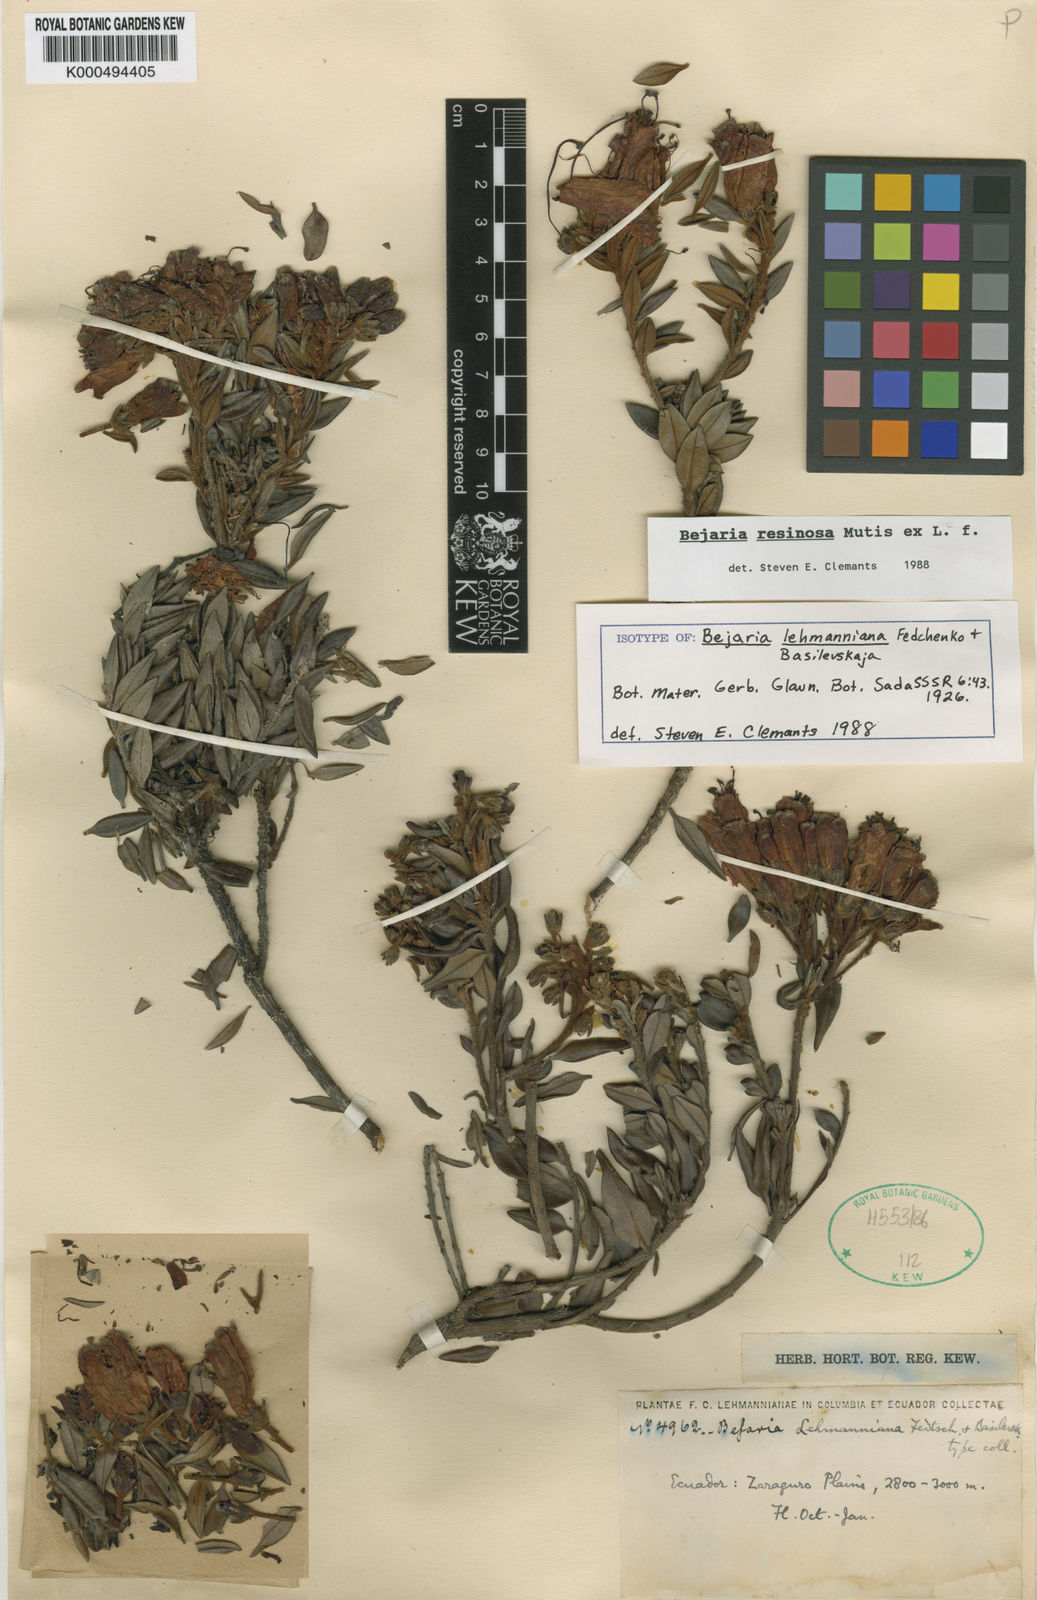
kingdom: Plantae
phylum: Tracheophyta
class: Magnoliopsida
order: Ericales
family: Ericaceae
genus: Bejaria
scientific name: Bejaria resinosa
